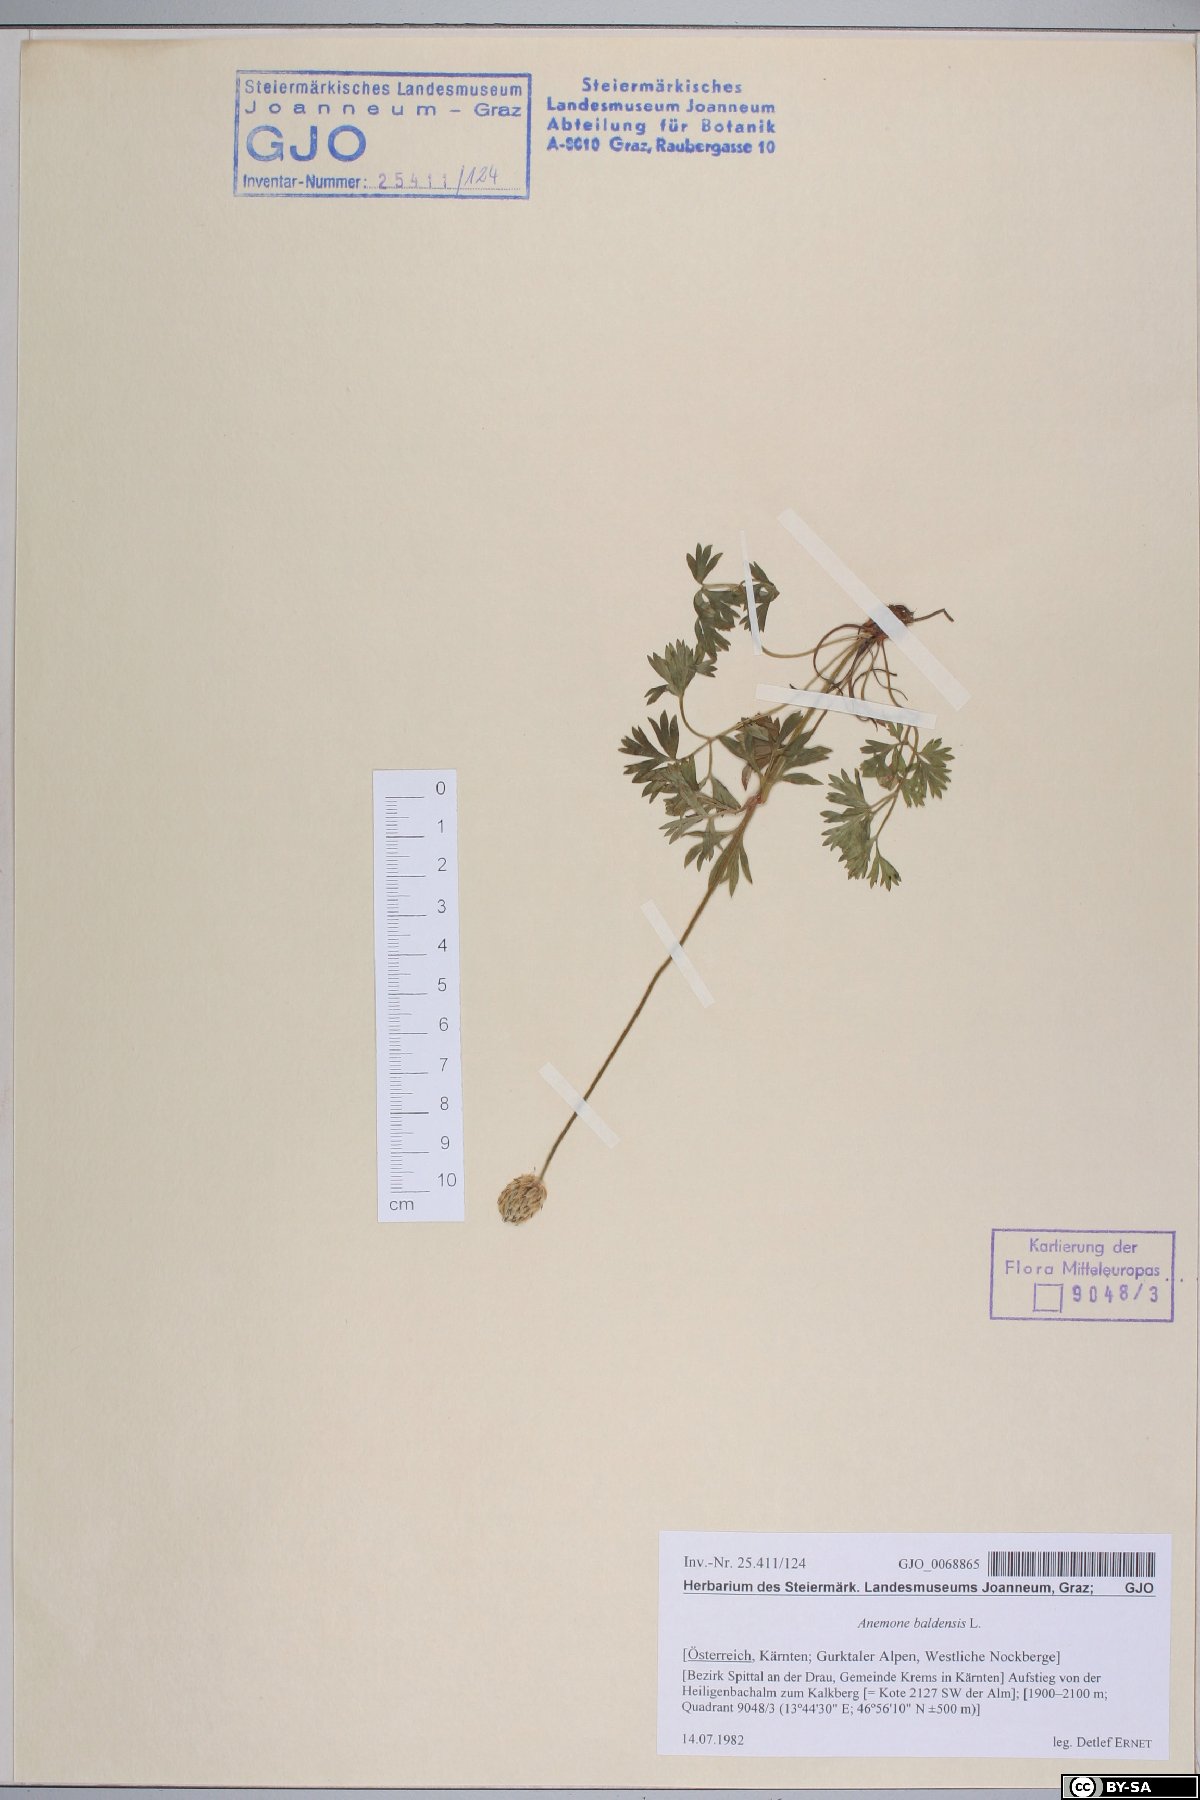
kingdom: Plantae
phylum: Tracheophyta
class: Magnoliopsida
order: Ranunculales
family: Ranunculaceae
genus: Anemone
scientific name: Anemone baldensis
